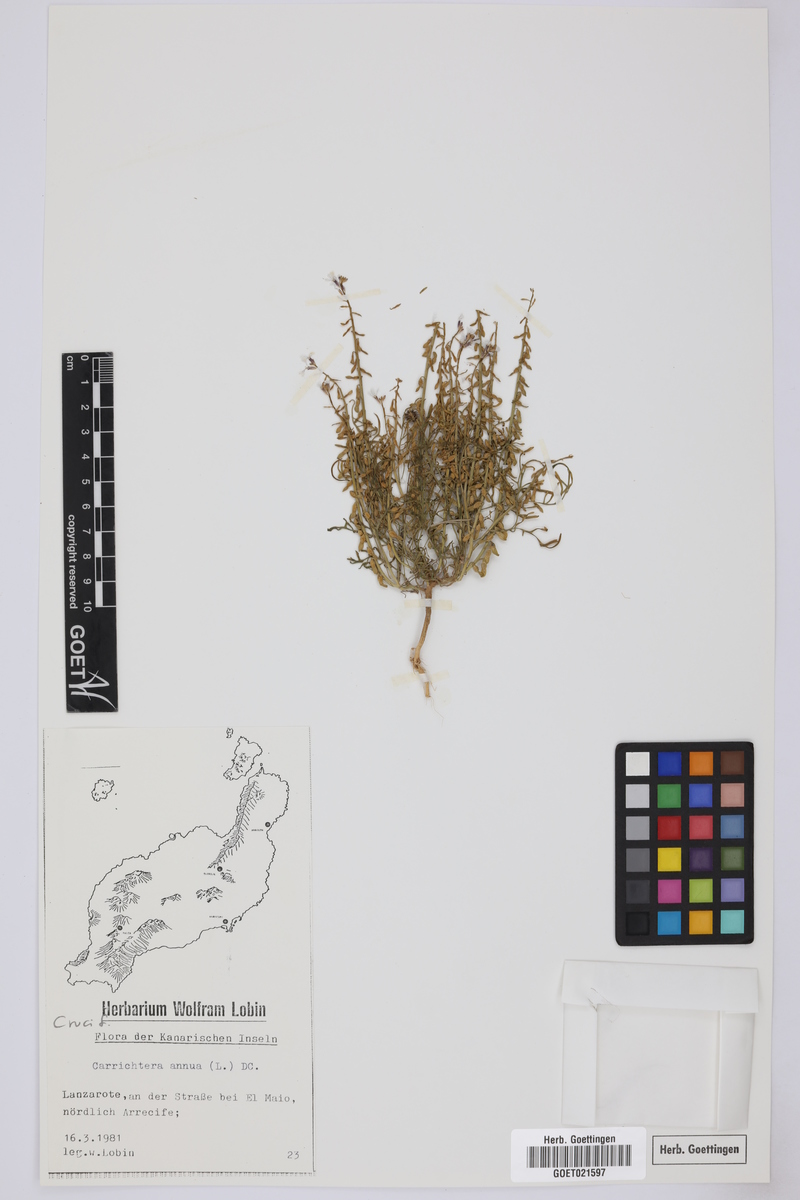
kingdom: Plantae
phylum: Tracheophyta
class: Magnoliopsida
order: Brassicales
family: Brassicaceae
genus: Carrichtera
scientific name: Carrichtera annua
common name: Cress rocket
